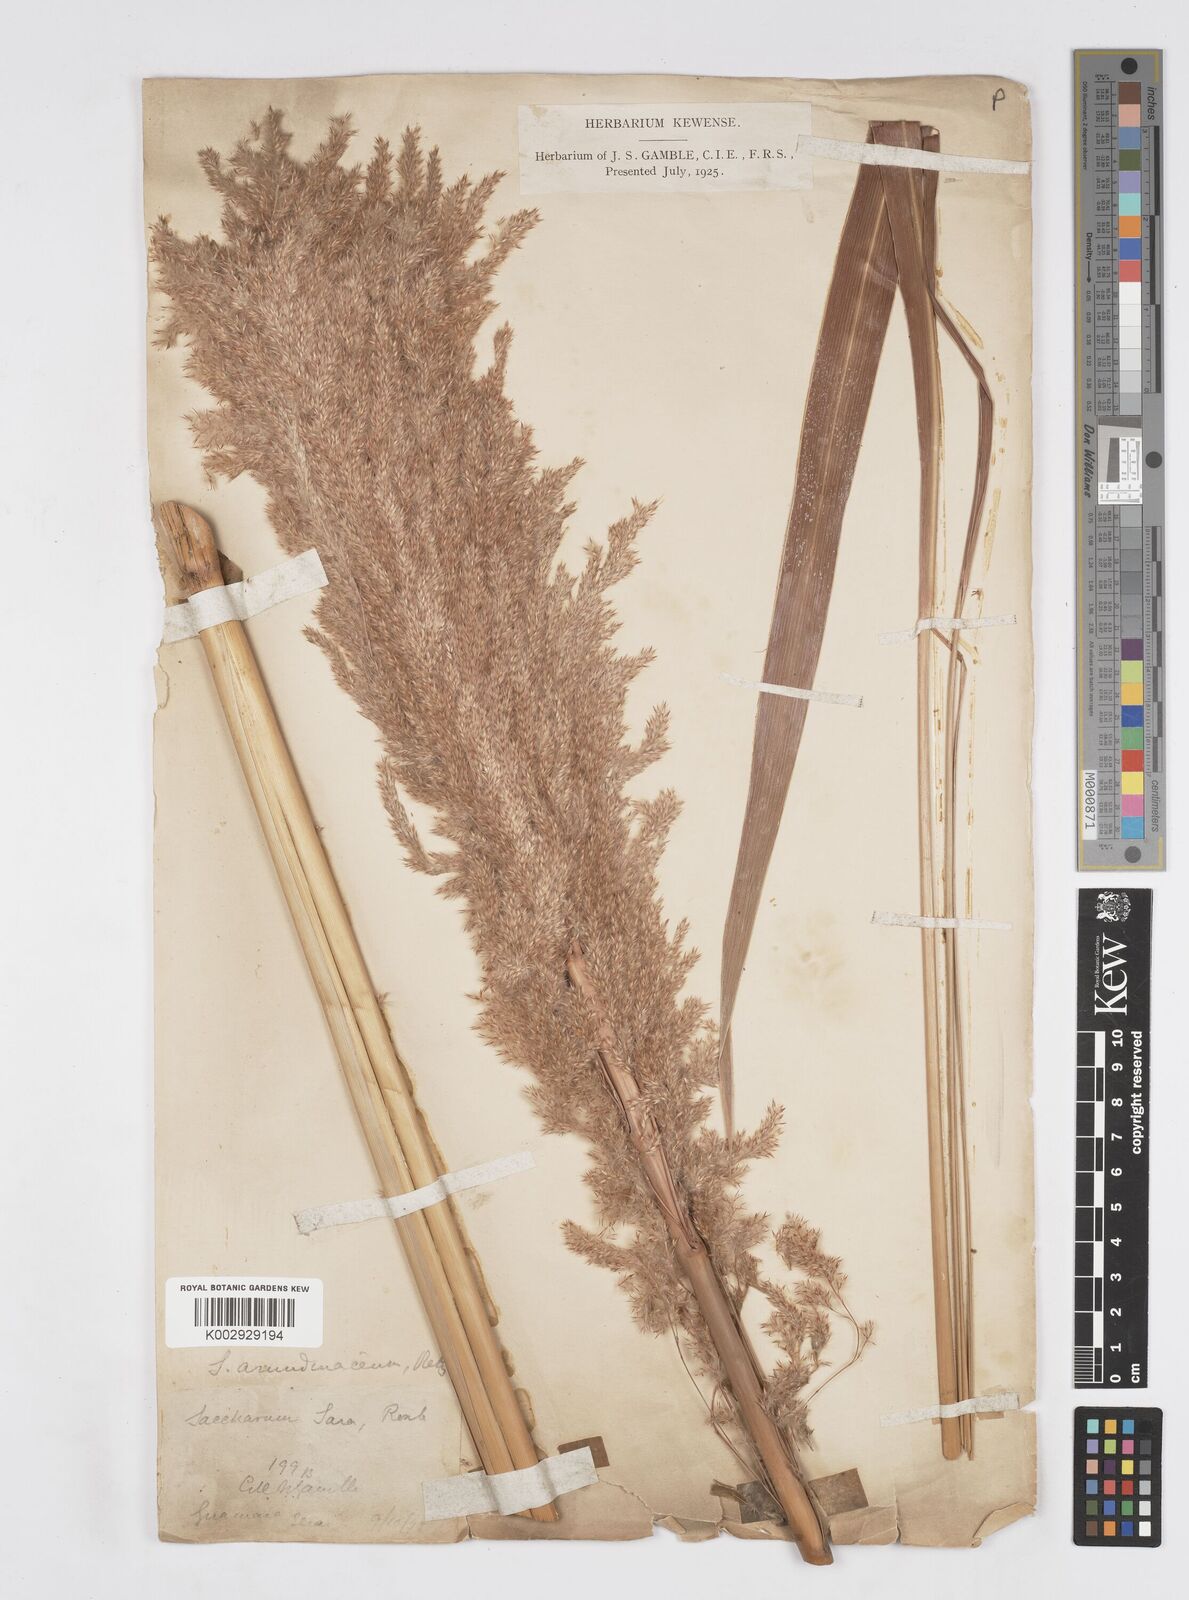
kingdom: Plantae
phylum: Tracheophyta
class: Liliopsida
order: Poales
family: Poaceae
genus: Tripidium
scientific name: Tripidium ravennae
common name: Ravenna grass
